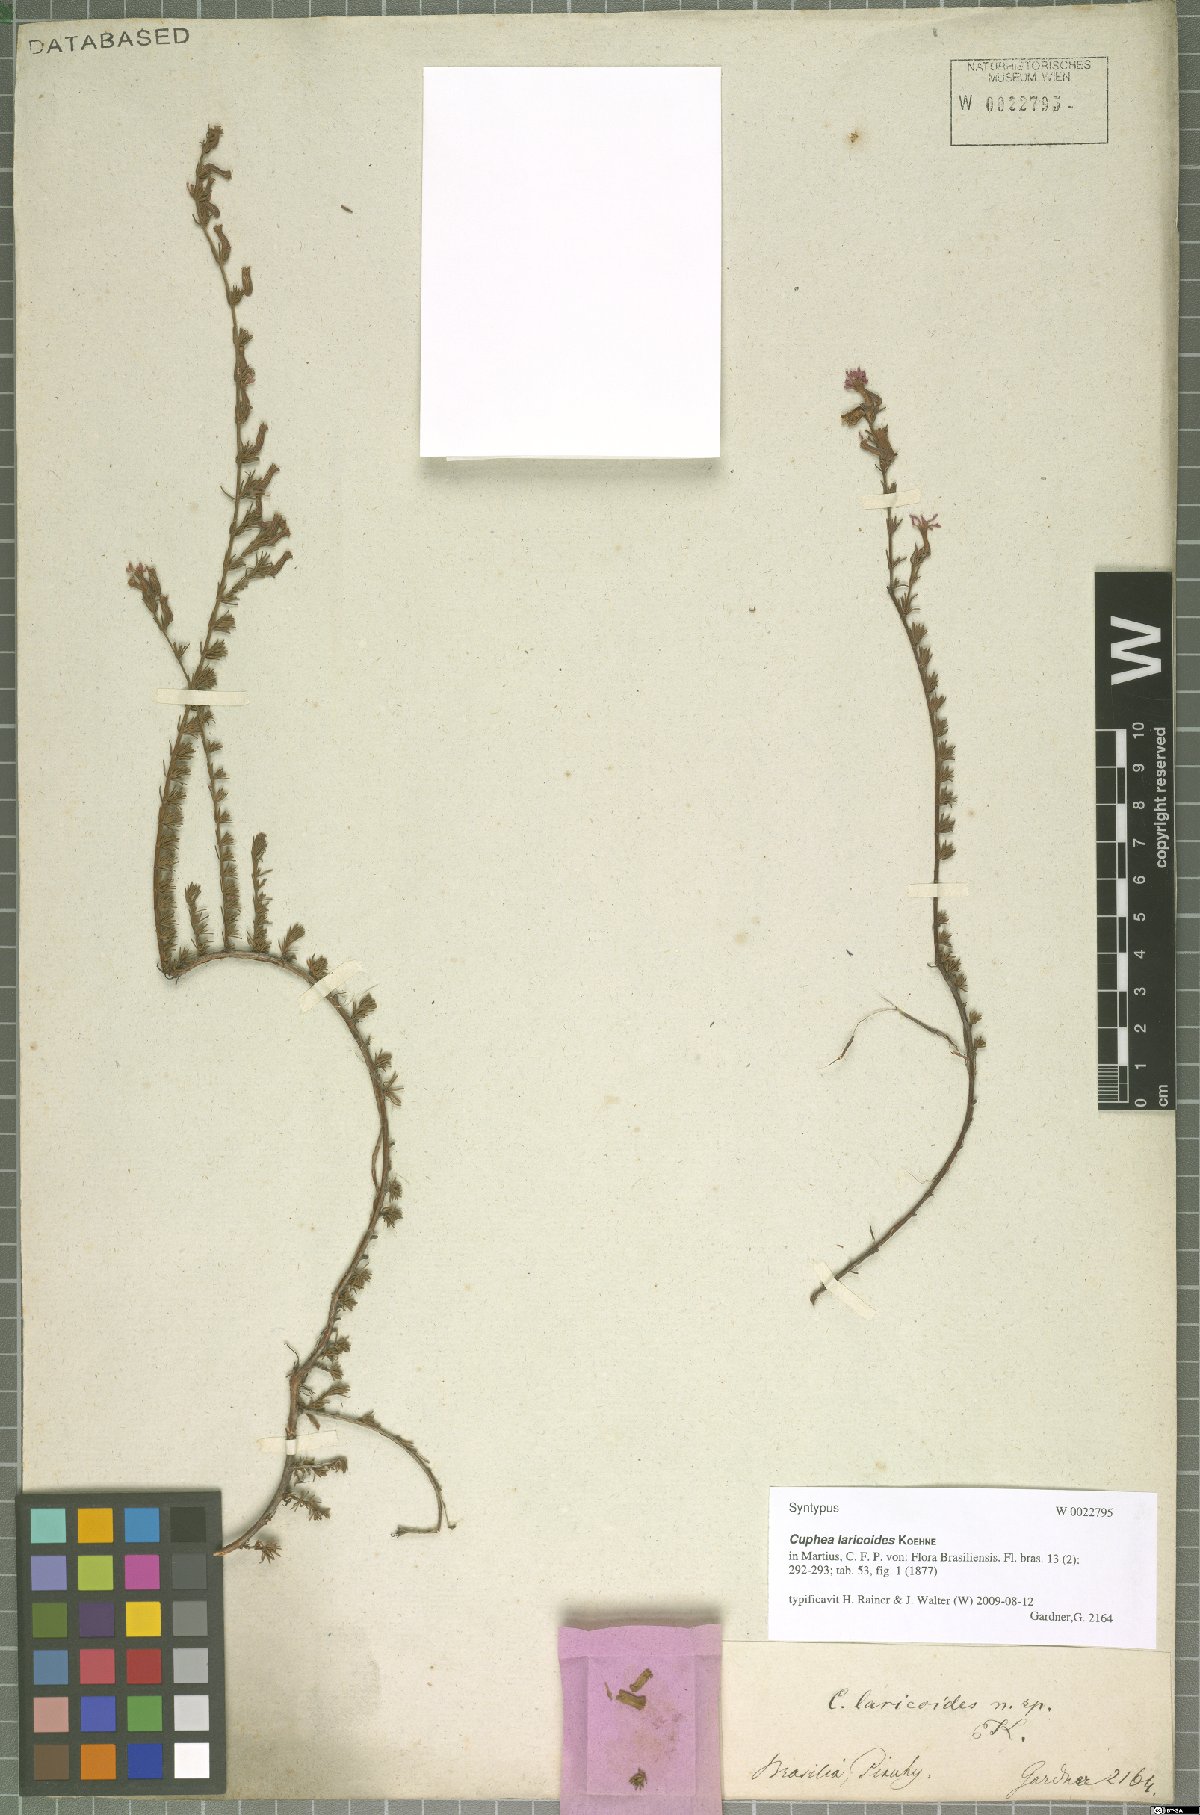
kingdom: Plantae
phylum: Tracheophyta
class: Magnoliopsida
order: Myrtales
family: Lythraceae
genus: Cuphea
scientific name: Cuphea laricoides
